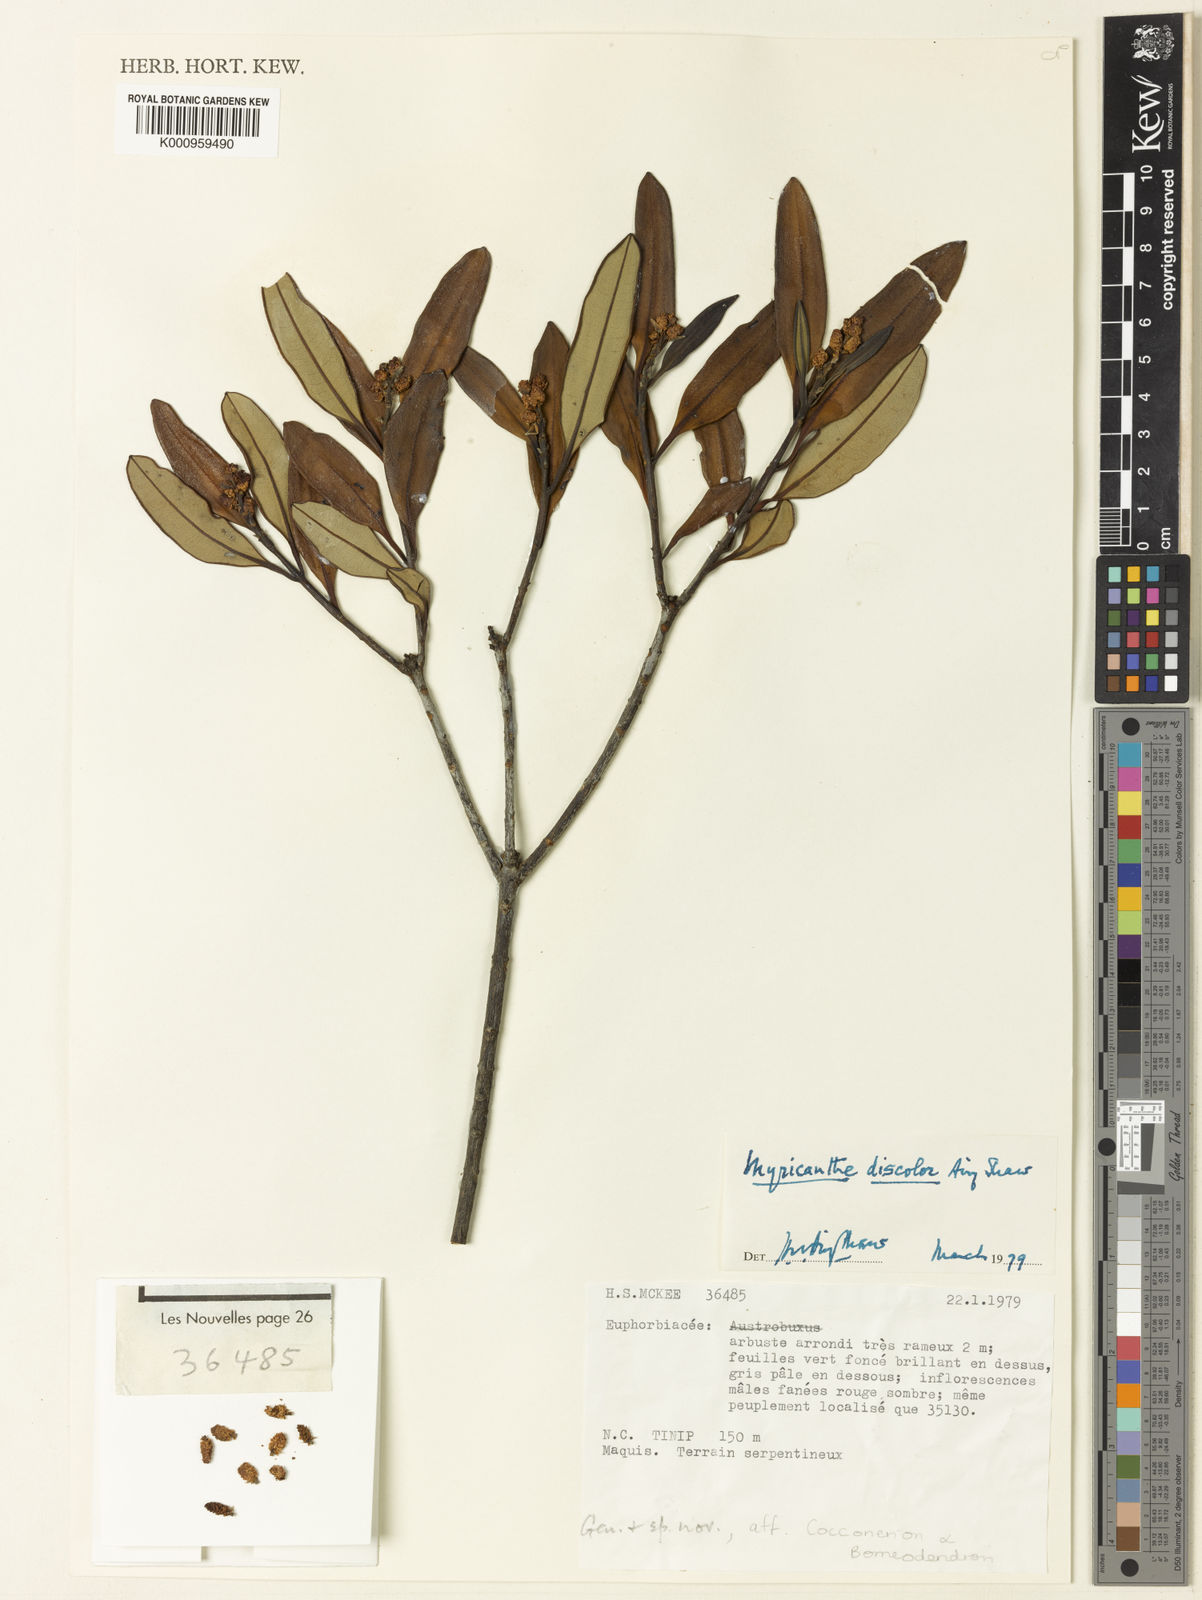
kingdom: Plantae
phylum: Tracheophyta
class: Magnoliopsida
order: Malpighiales
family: Euphorbiaceae
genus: Myricanthe
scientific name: Myricanthe discolor
